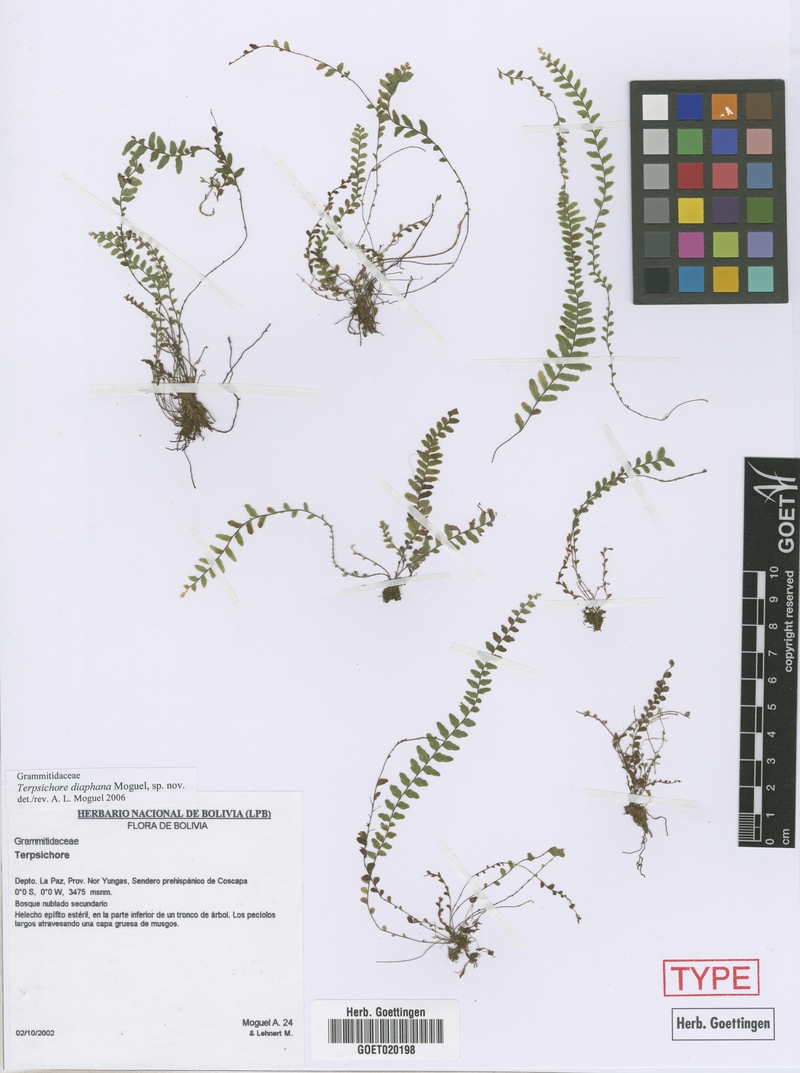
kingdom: Plantae
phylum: Tracheophyta
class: Polypodiopsida
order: Polypodiales
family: Polypodiaceae
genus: Alansmia
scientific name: Alansmia diaphana
